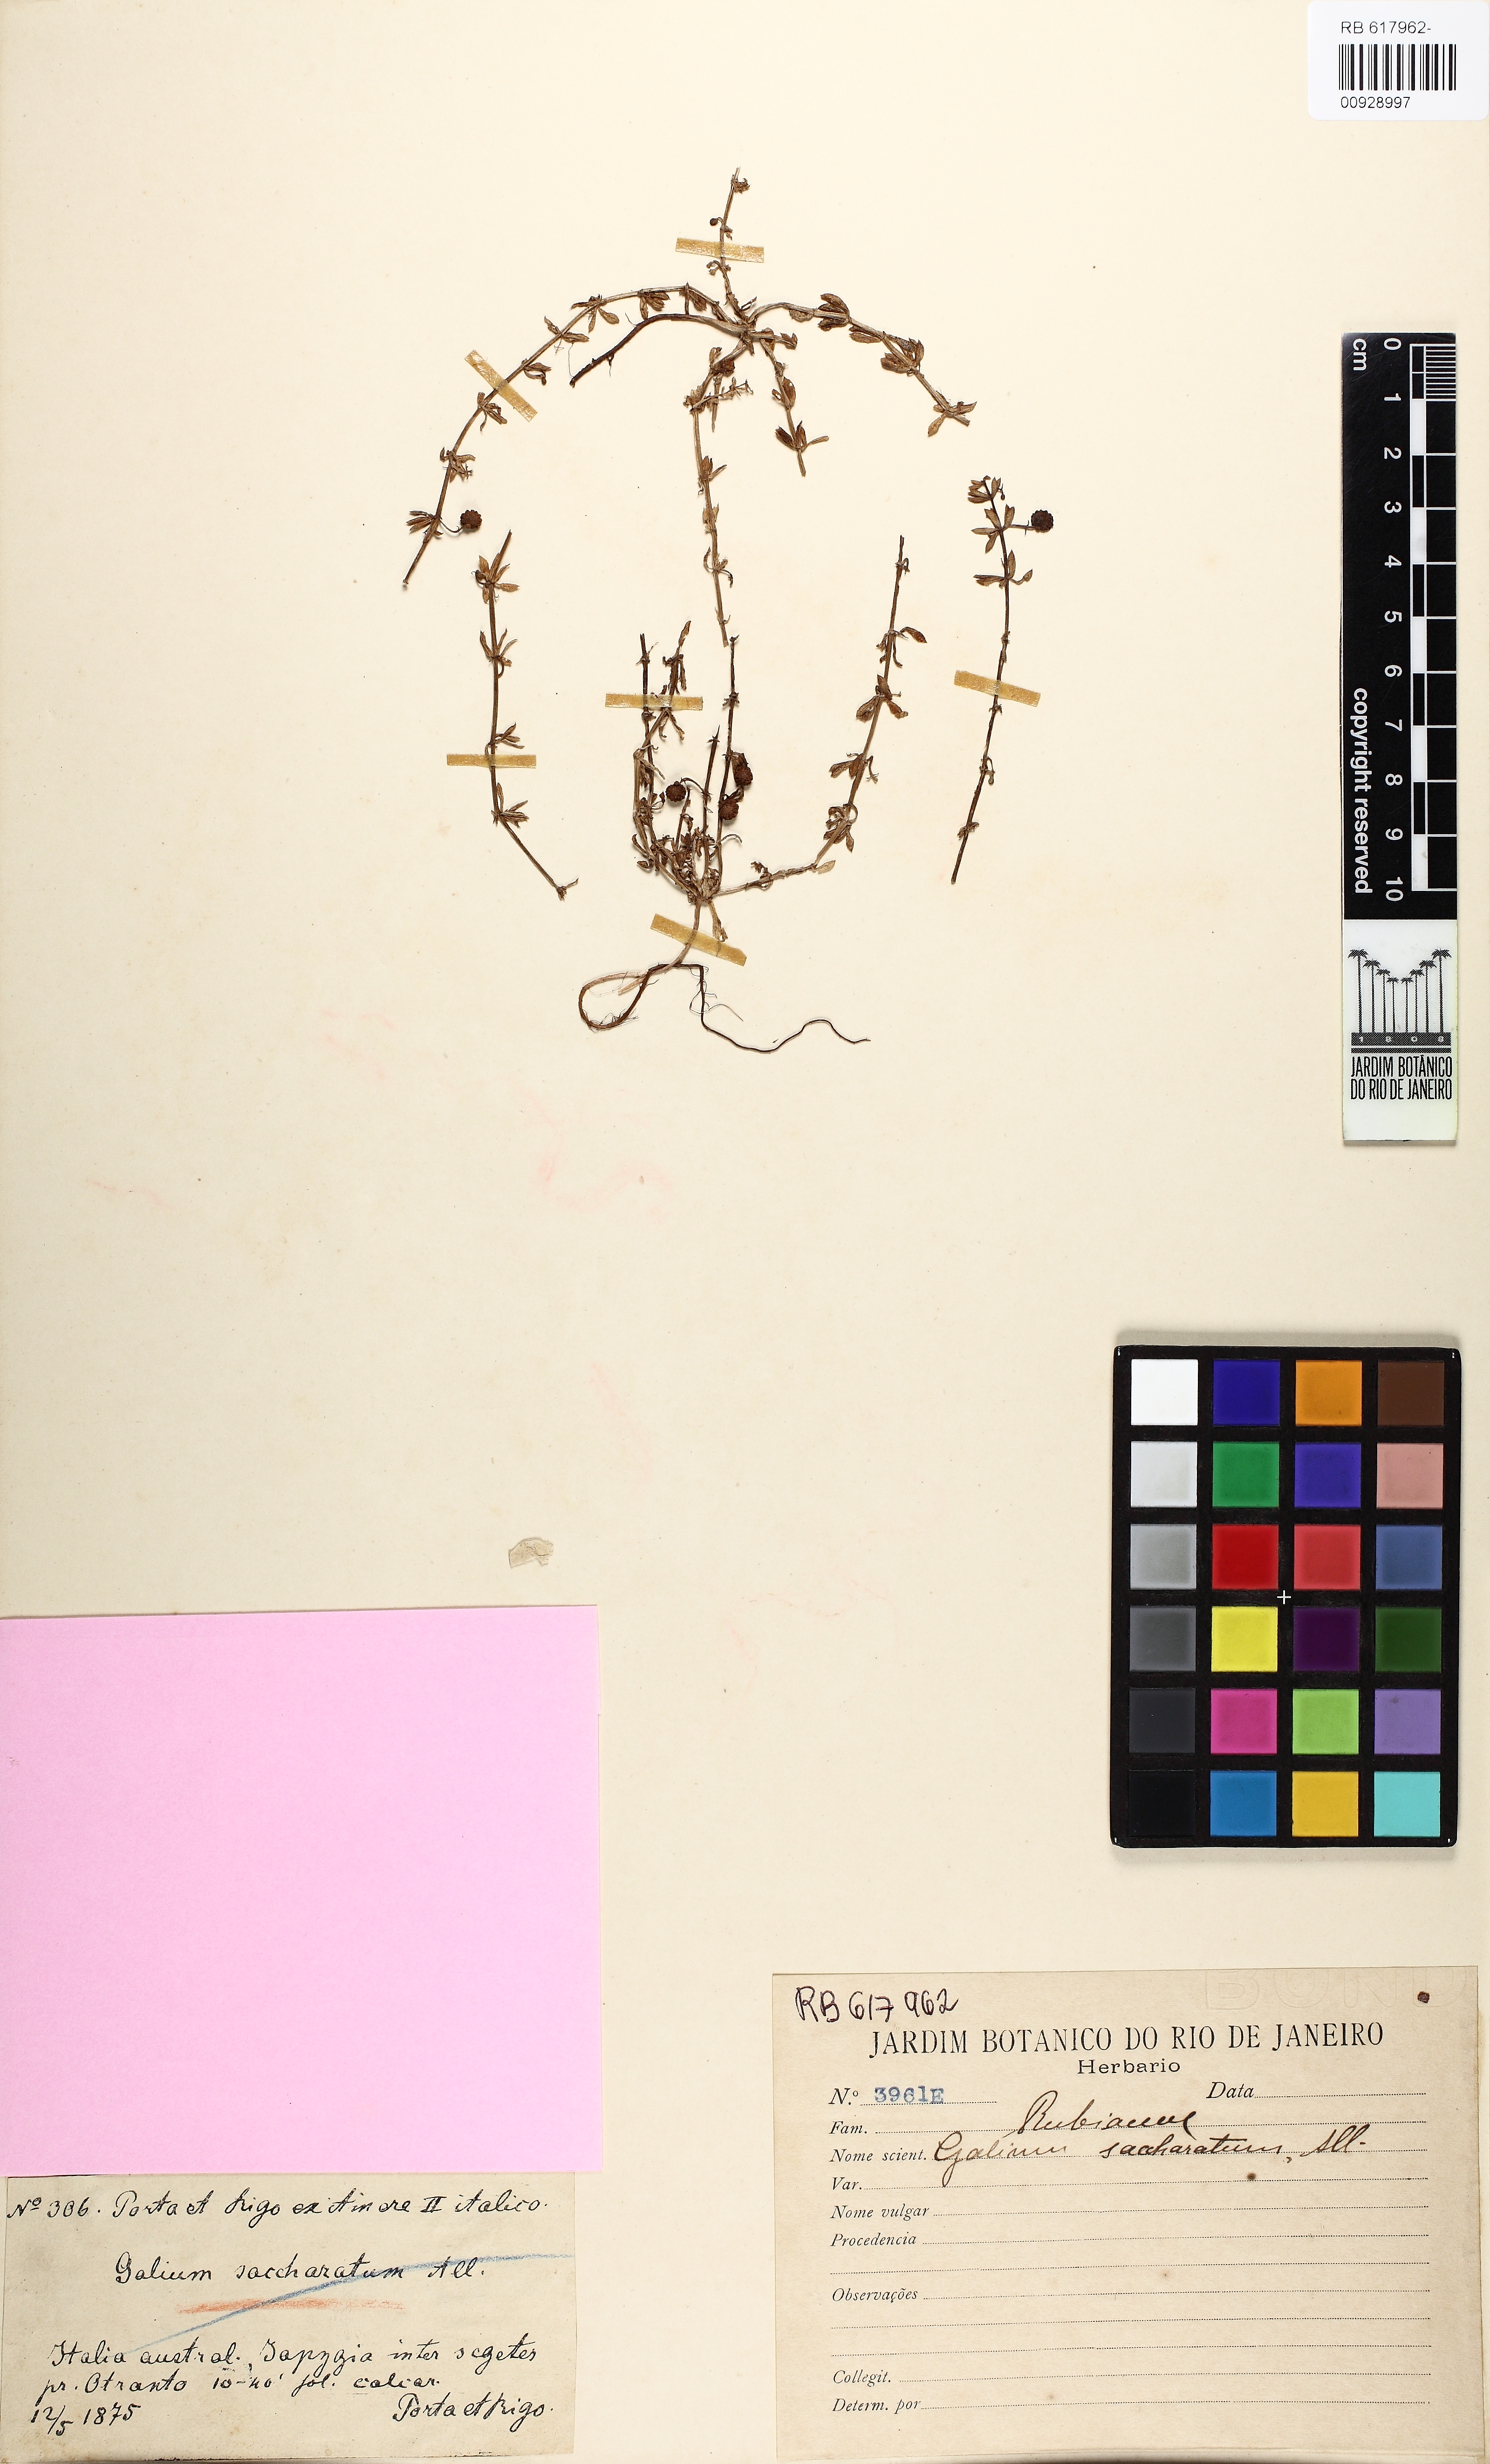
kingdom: Plantae
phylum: Tracheophyta
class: Magnoliopsida
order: Gentianales
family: Rubiaceae
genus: Galium
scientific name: Galium verrucosum
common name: Warty bedstraw
